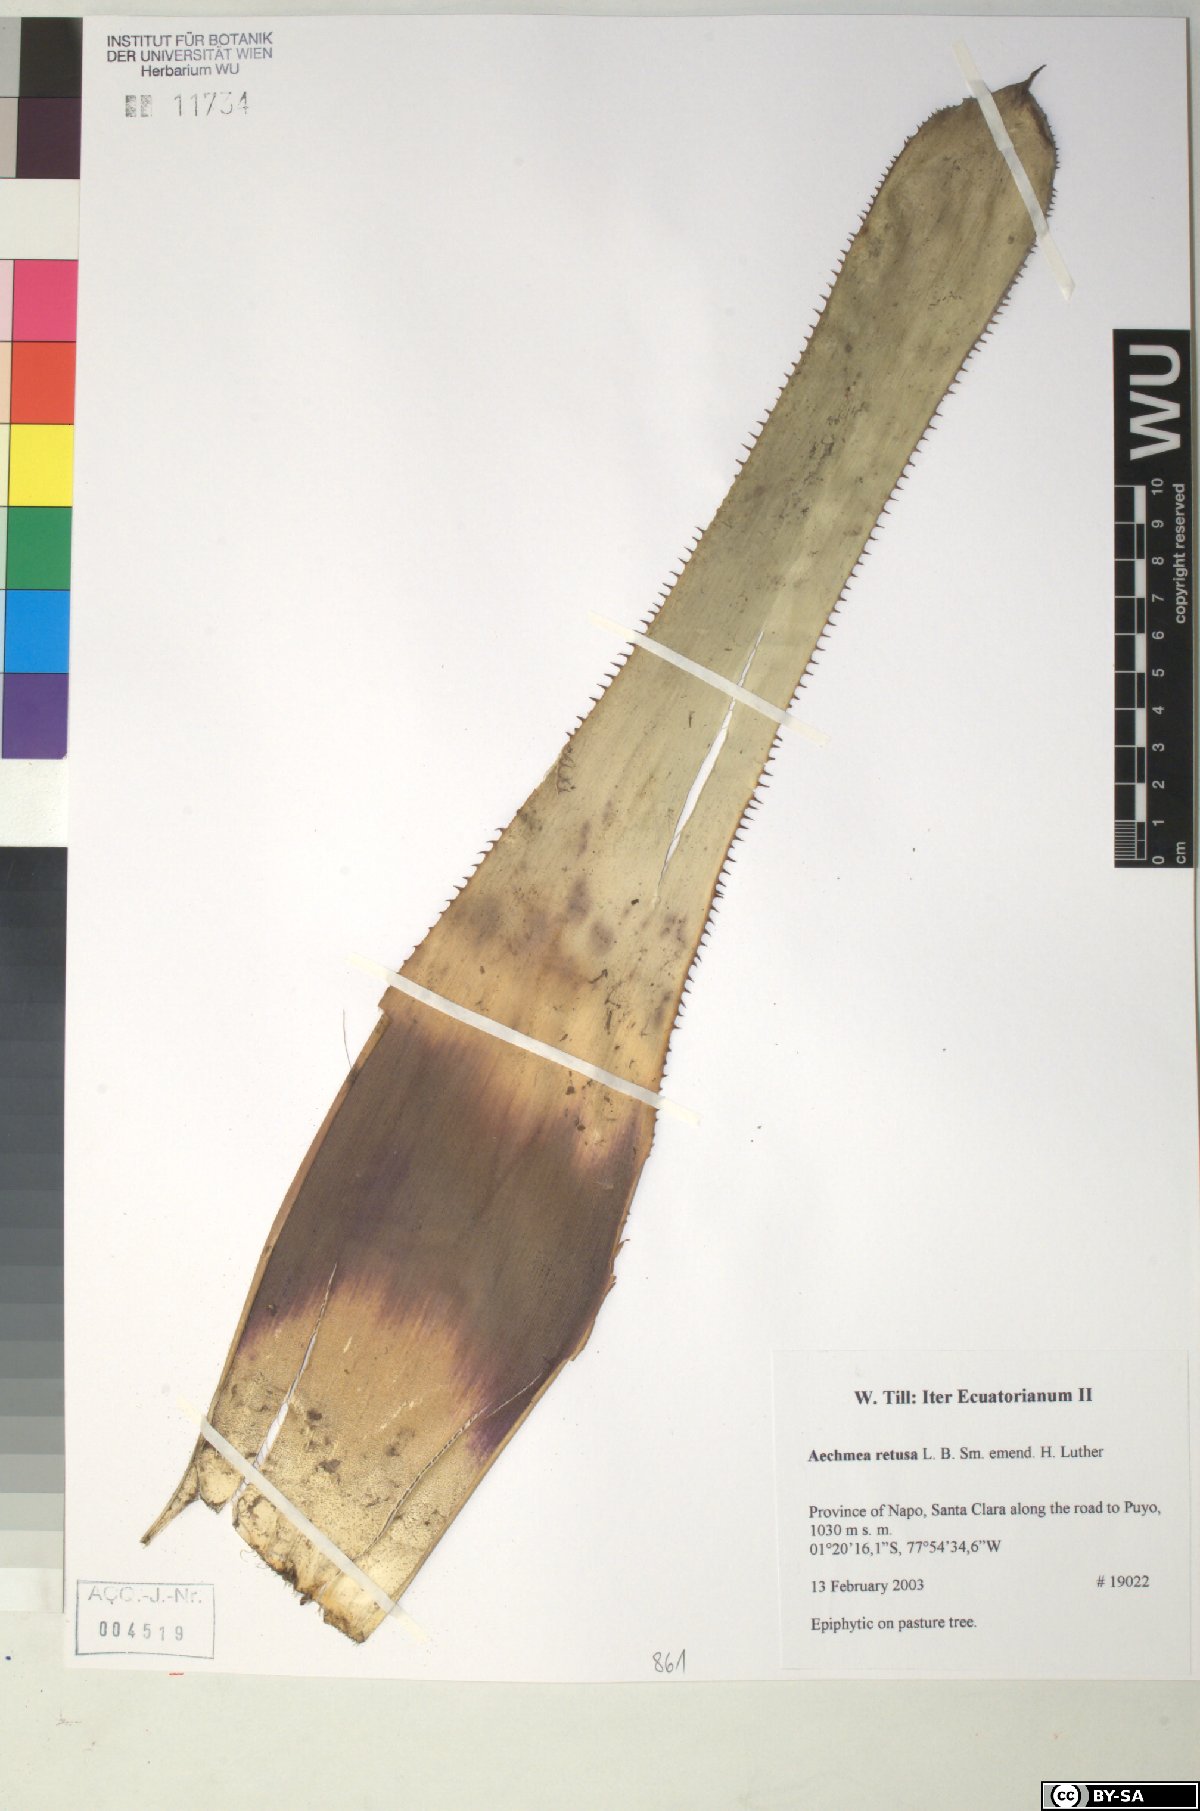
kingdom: Plantae
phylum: Tracheophyta
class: Liliopsida
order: Poales
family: Bromeliaceae
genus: Aechmea
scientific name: Aechmea
